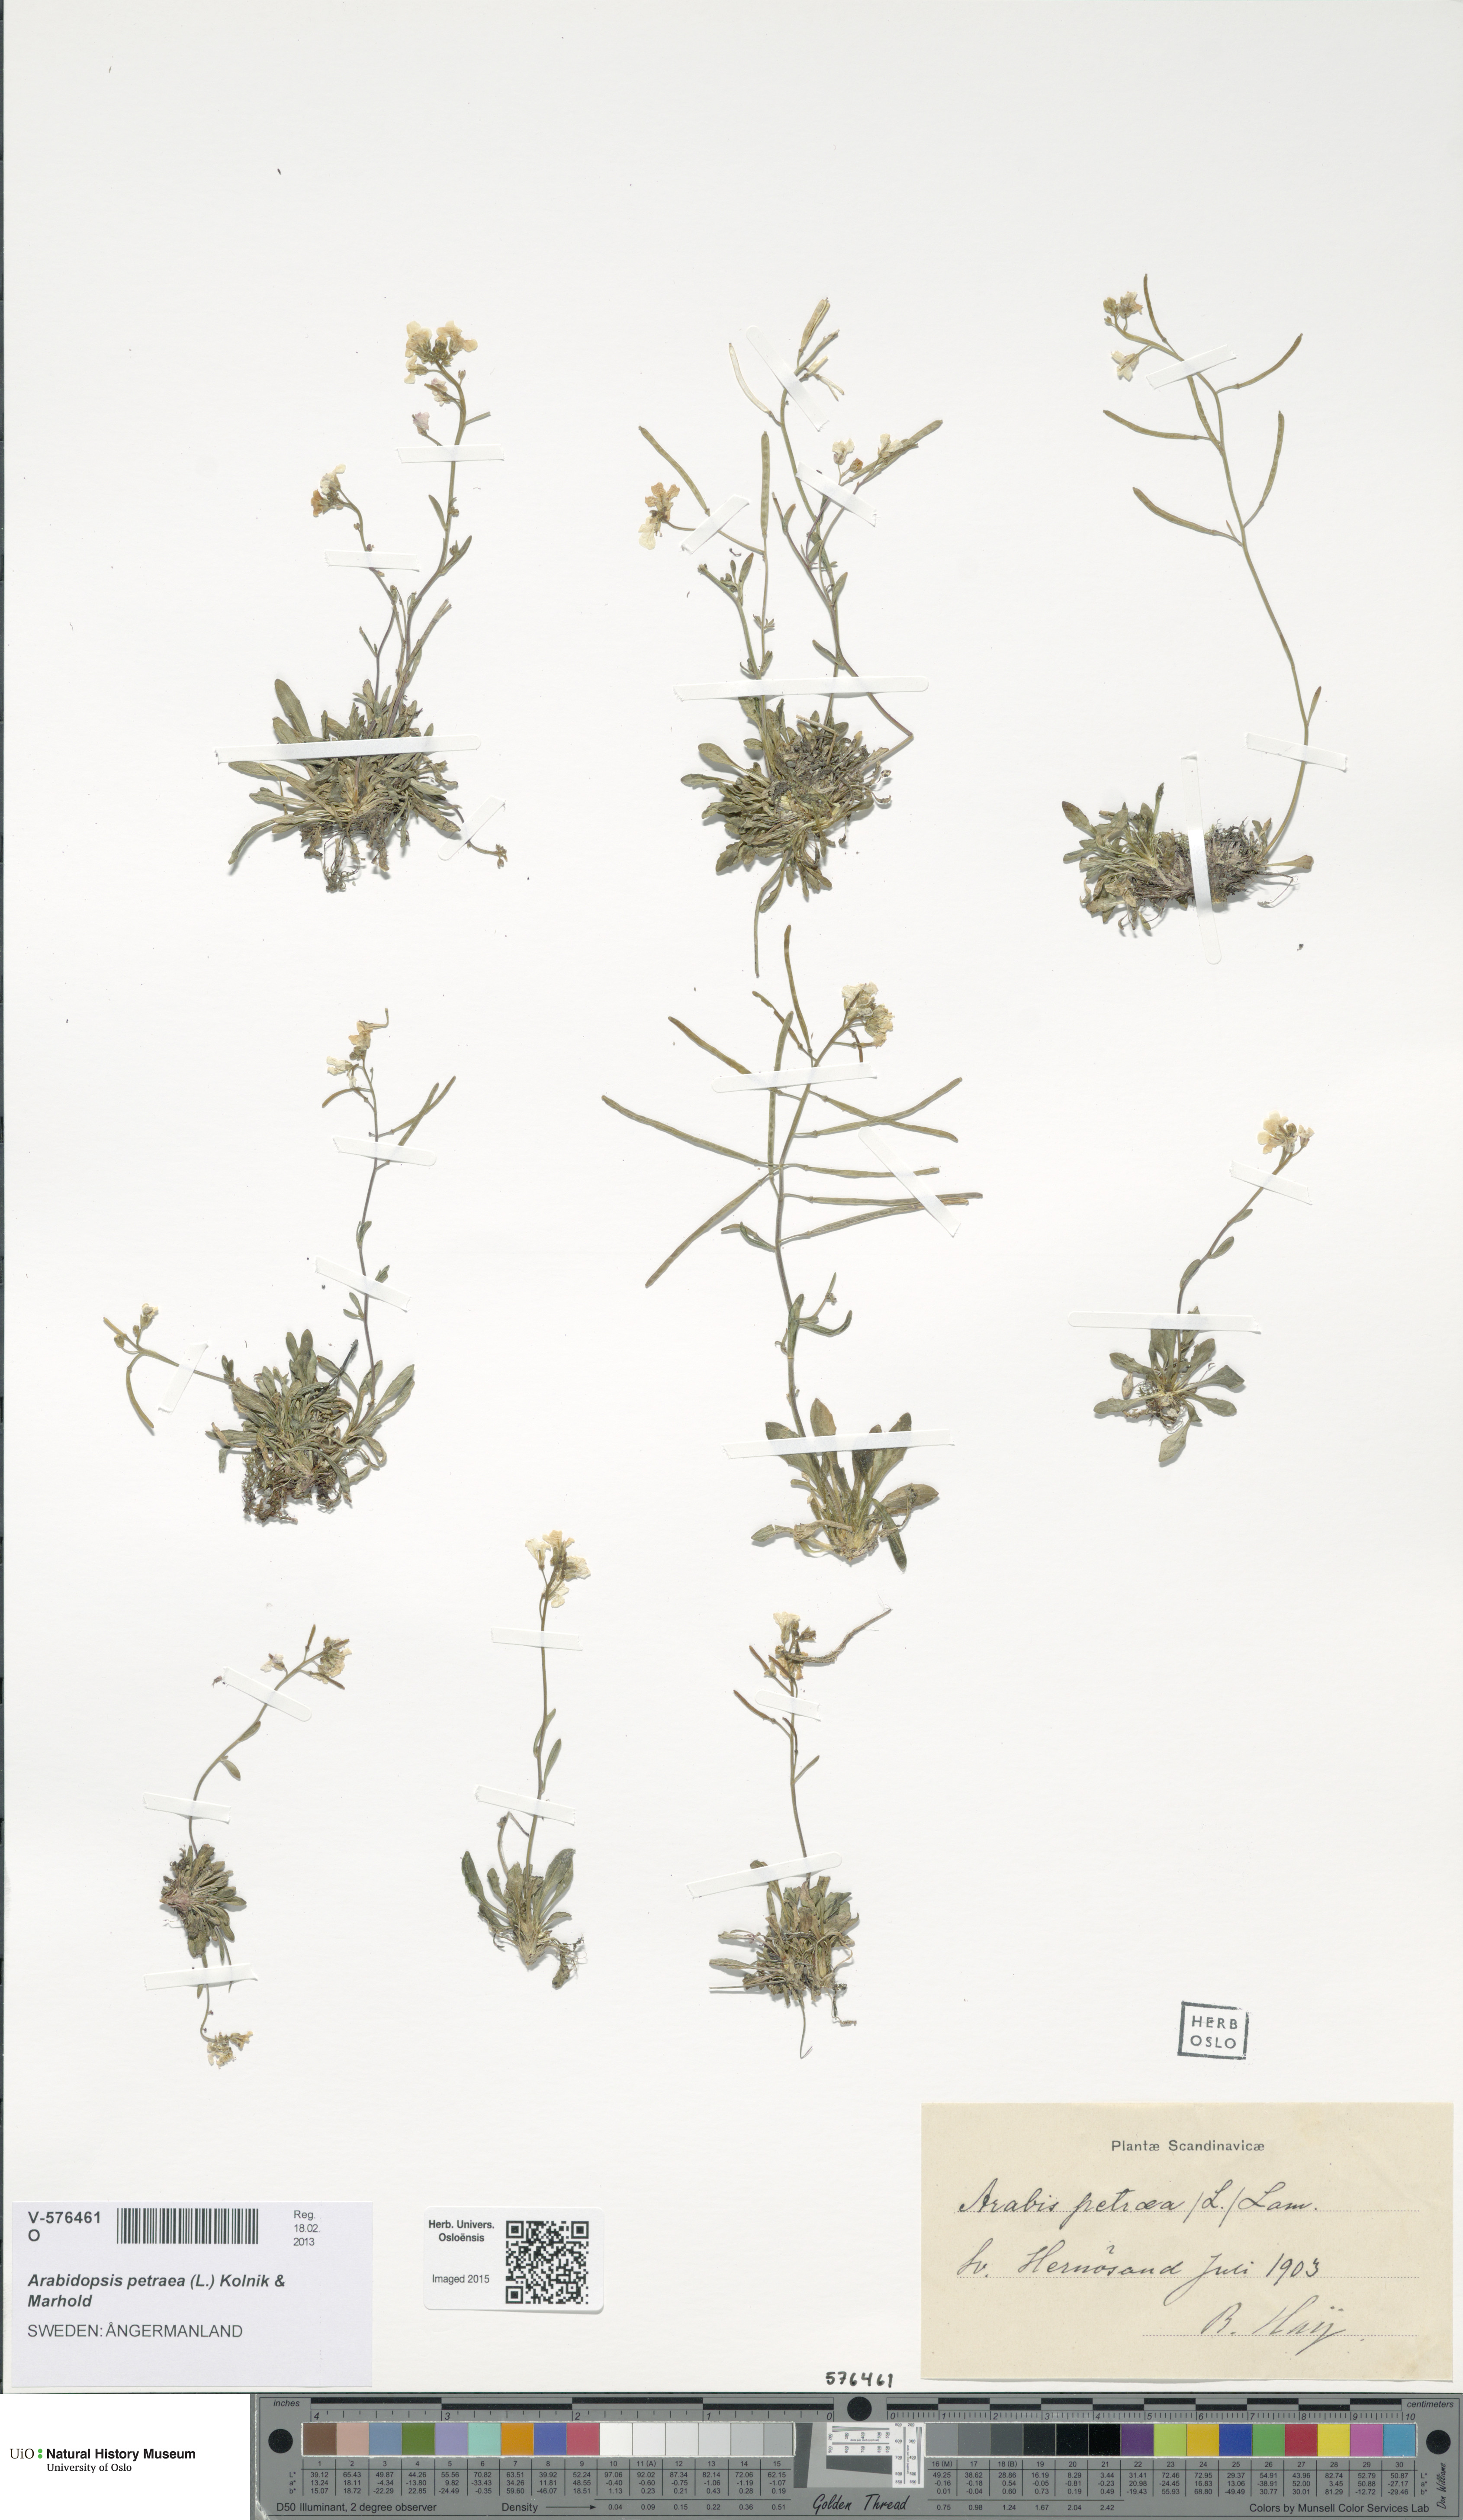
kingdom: Plantae
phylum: Tracheophyta
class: Magnoliopsida
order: Brassicales
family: Brassicaceae
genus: Arabidopsis
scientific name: Arabidopsis petraea
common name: Northern rock-cress
